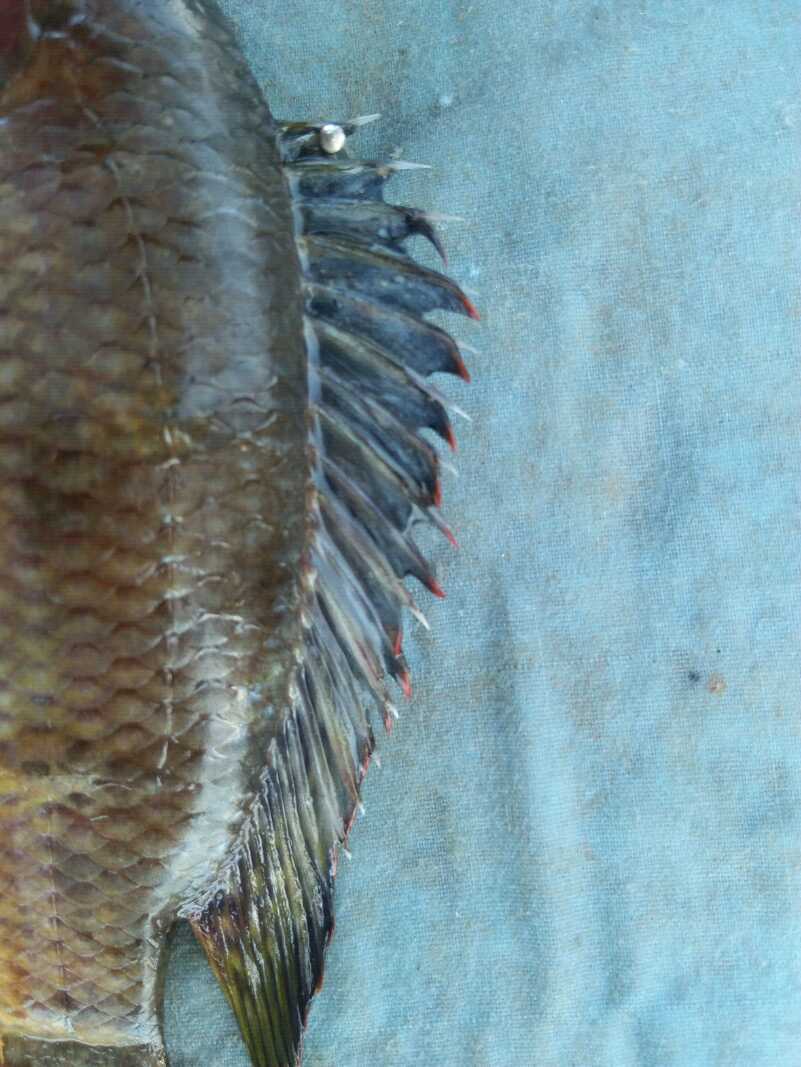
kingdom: Animalia
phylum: Chordata
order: Perciformes
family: Cichlidae
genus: Oreochromis
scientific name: Oreochromis spilurus
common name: Sabaki tilapia
